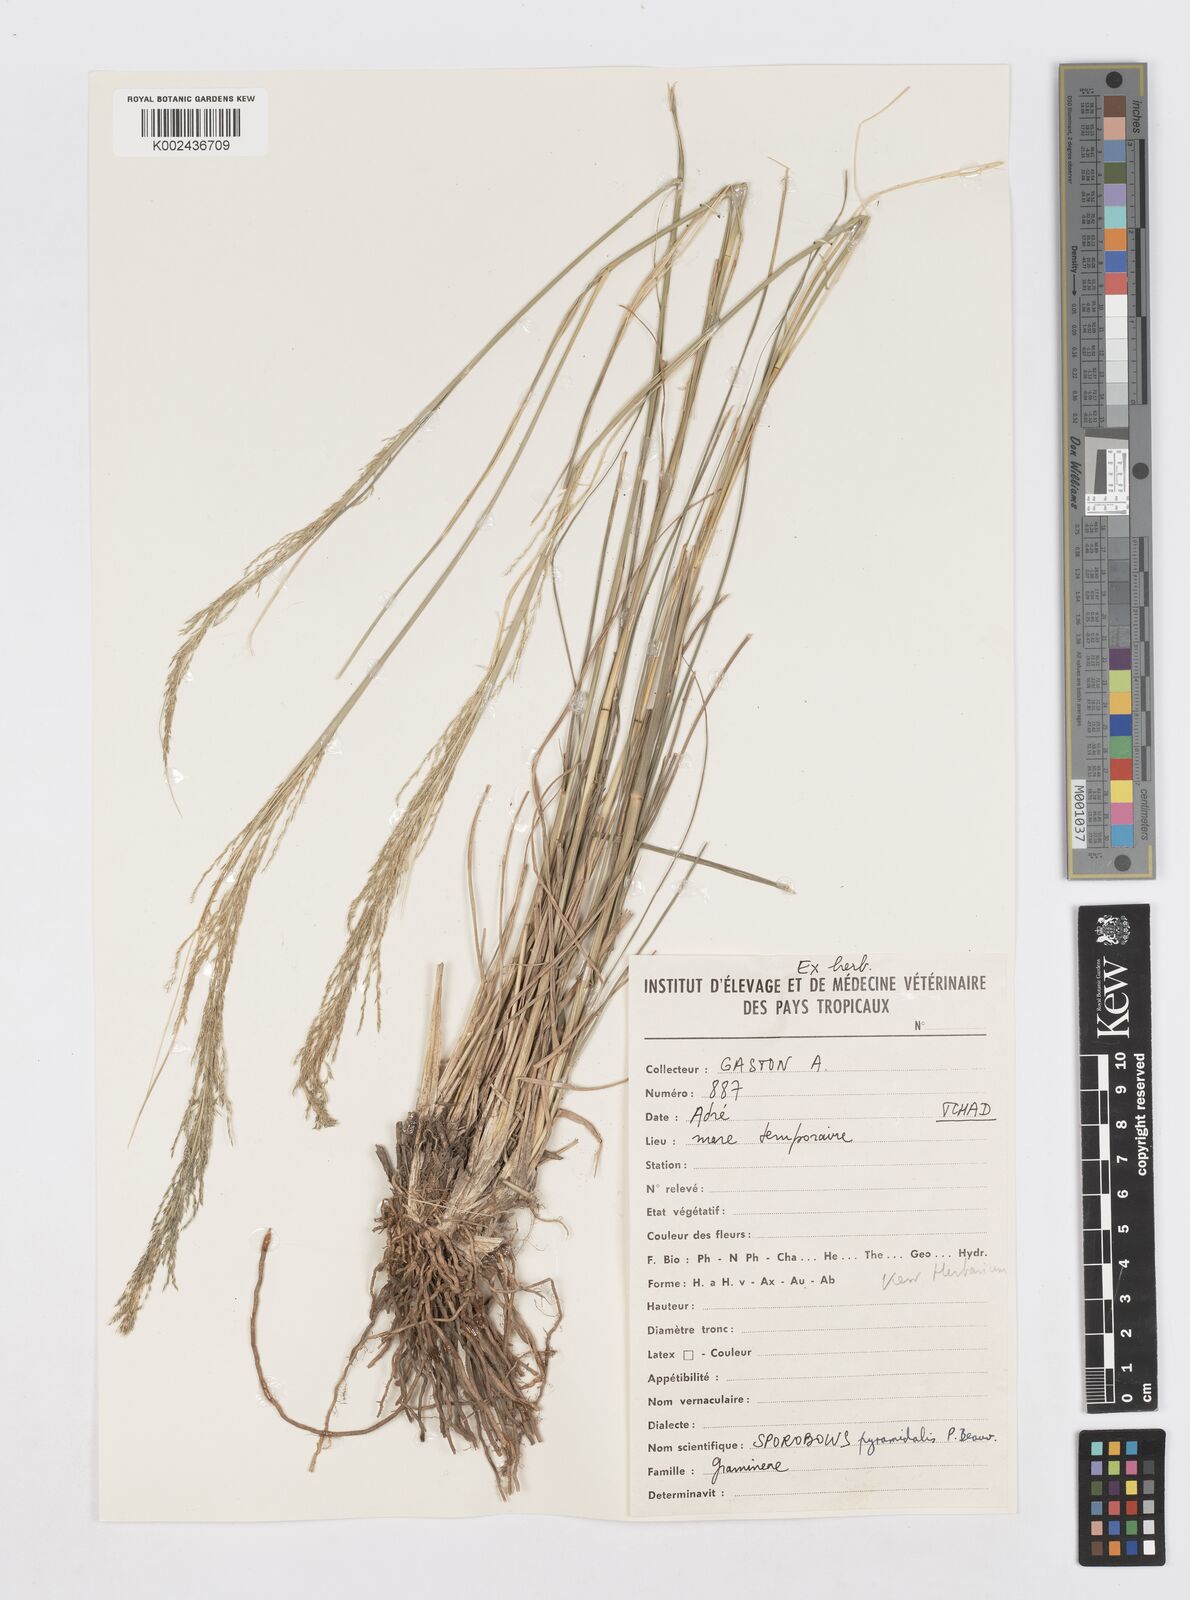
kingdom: Plantae
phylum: Tracheophyta
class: Liliopsida
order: Poales
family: Poaceae
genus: Sporobolus
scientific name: Sporobolus pyramidalis
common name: West indian dropseed
